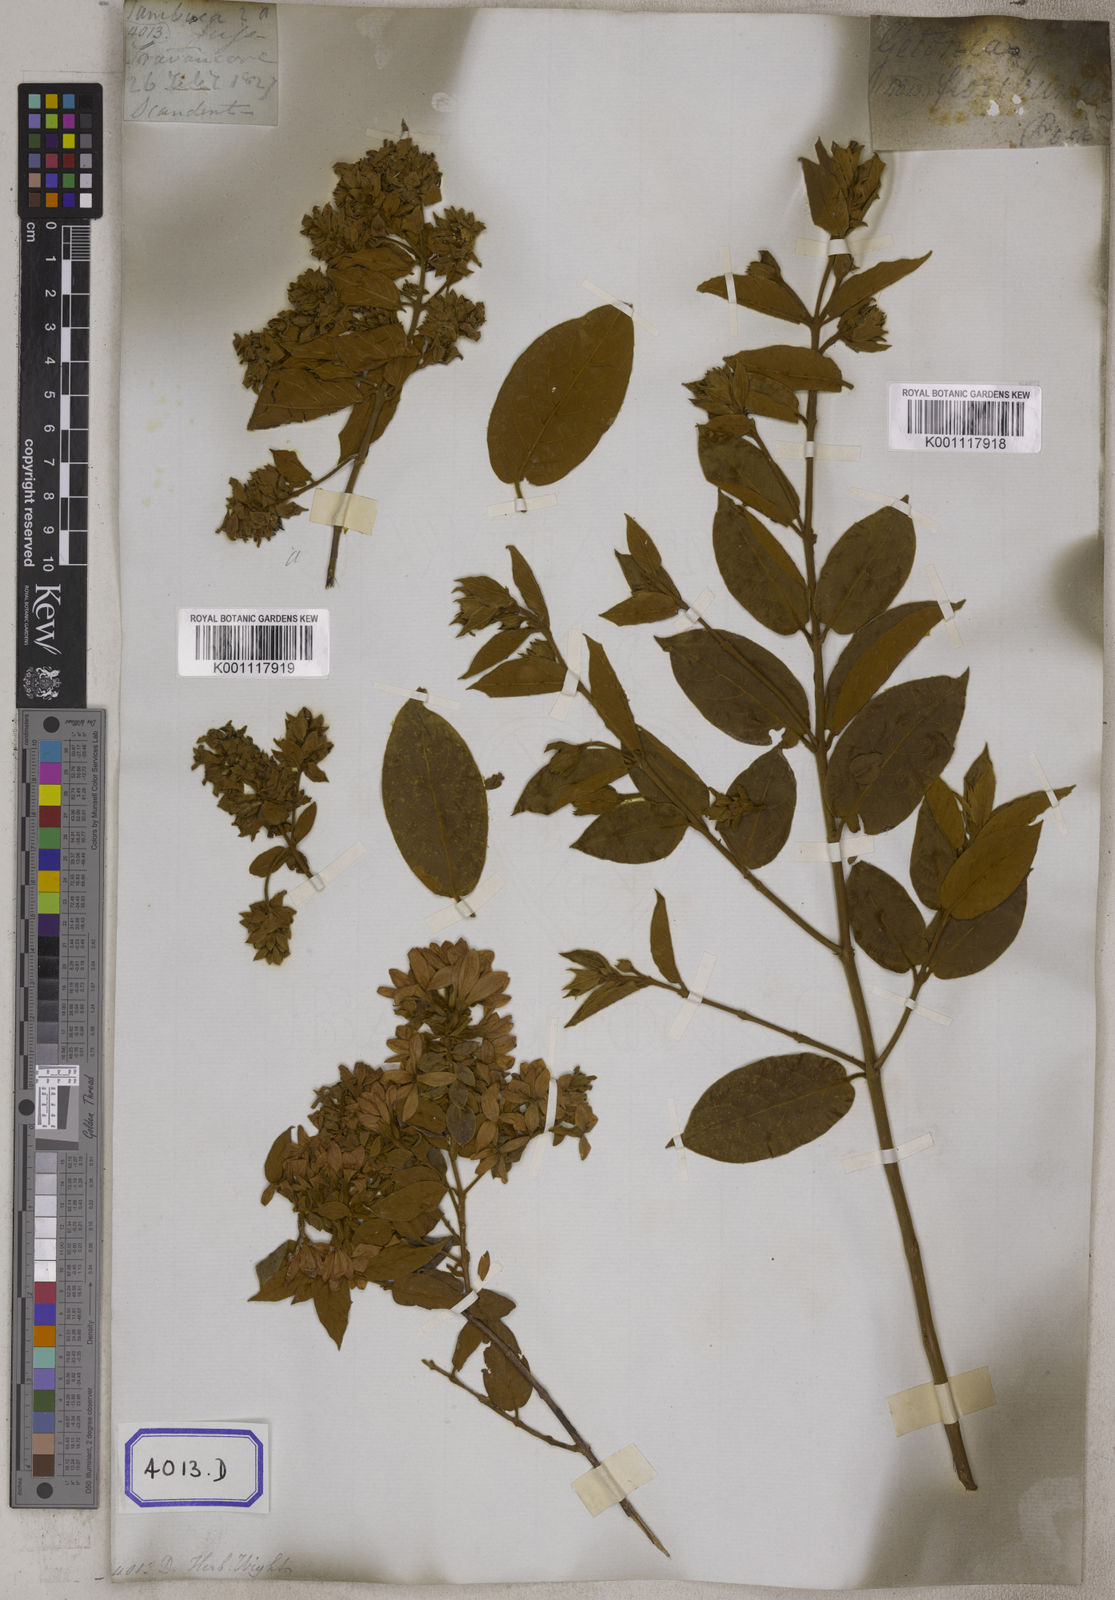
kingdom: Plantae
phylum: Tracheophyta
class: Magnoliopsida
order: Myrtales
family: Combretaceae
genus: Getonia
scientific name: Getonia floribunda
